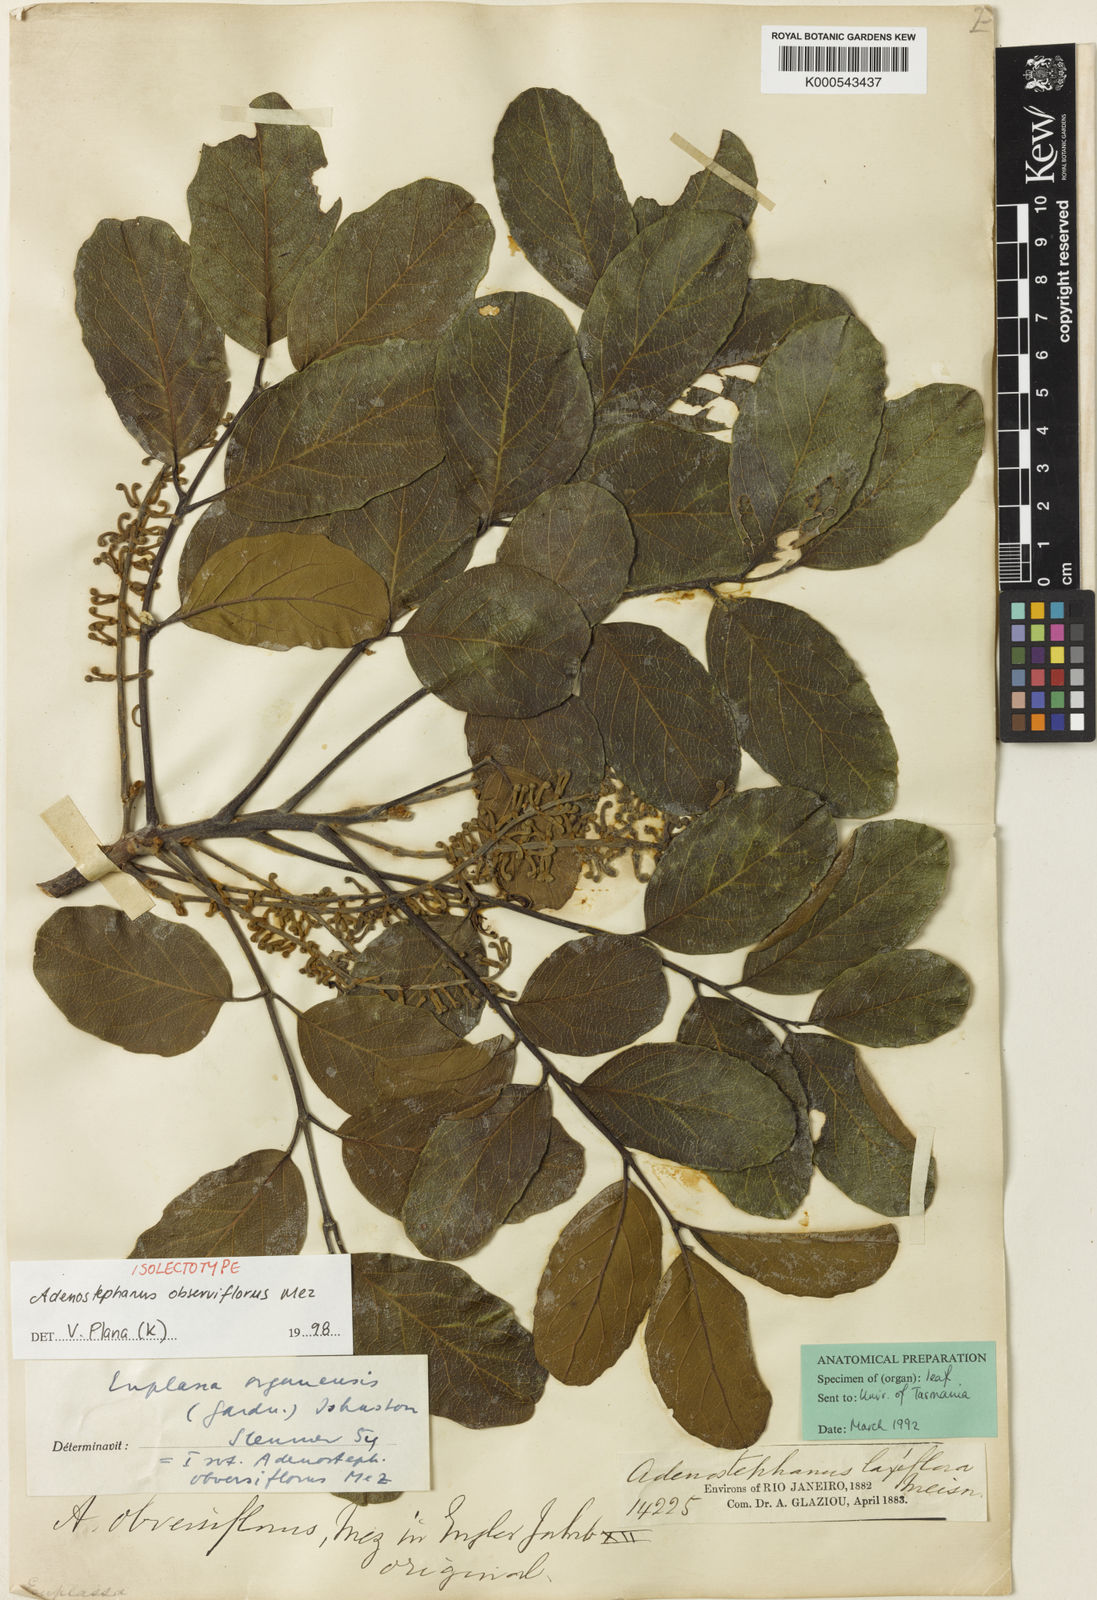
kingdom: Plantae
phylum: Tracheophyta
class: Magnoliopsida
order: Proteales
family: Proteaceae
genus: Euplassa
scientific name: Euplassa organensis
